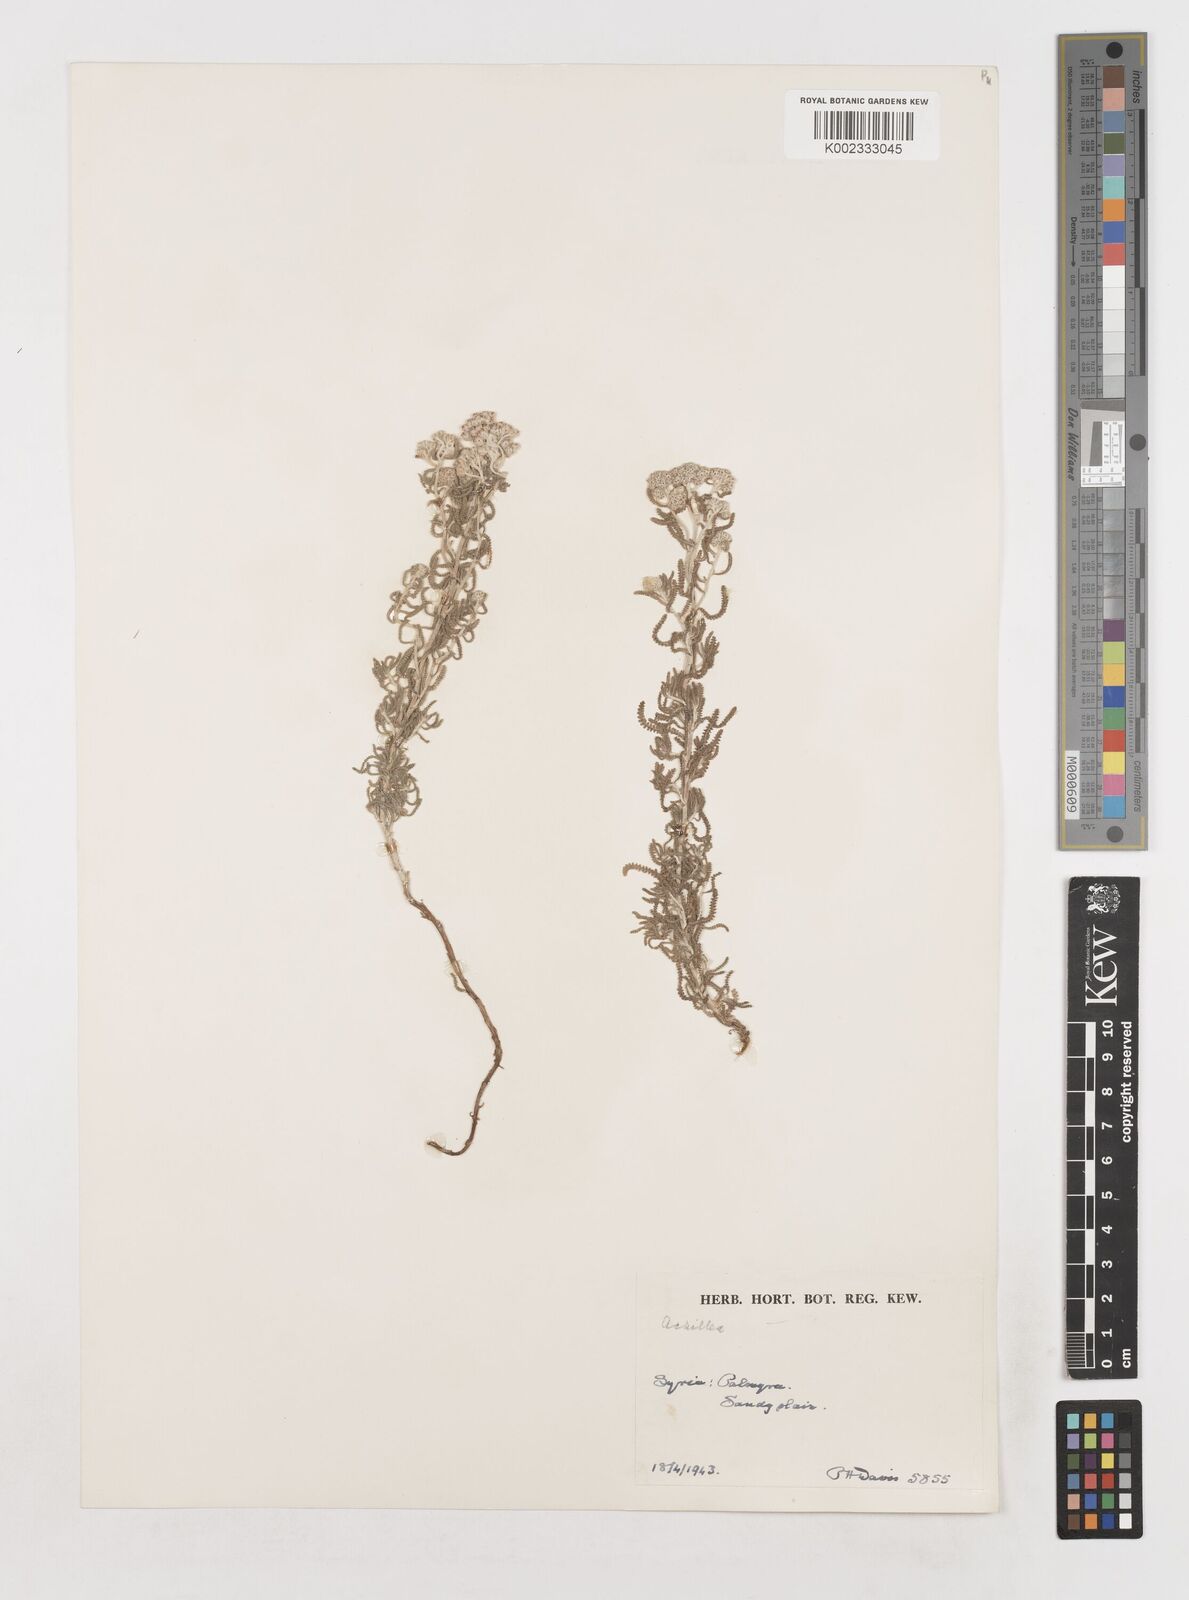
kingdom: Plantae
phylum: Tracheophyta
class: Magnoliopsida
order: Asterales
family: Asteraceae
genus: Achillea
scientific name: Achillea
